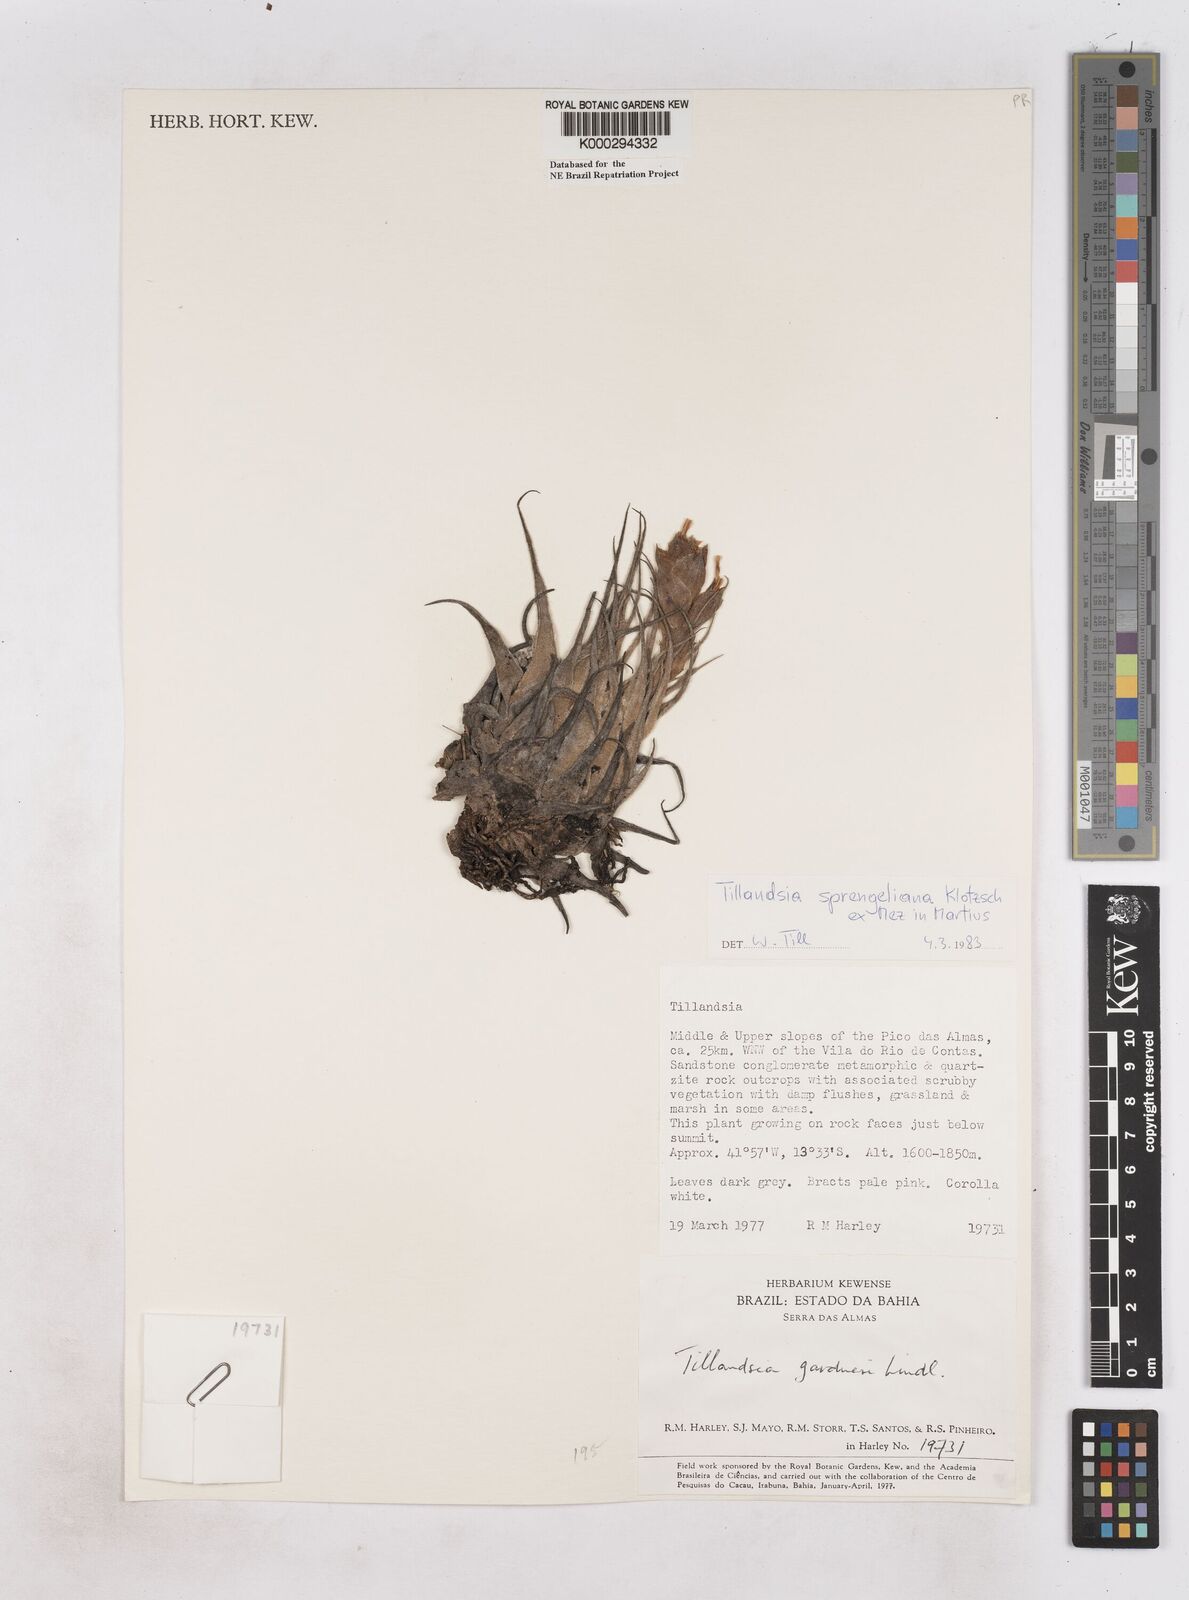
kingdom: Plantae
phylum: Tracheophyta
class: Liliopsida
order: Poales
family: Bromeliaceae
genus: Tillandsia
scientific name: Tillandsia sprengeliana
